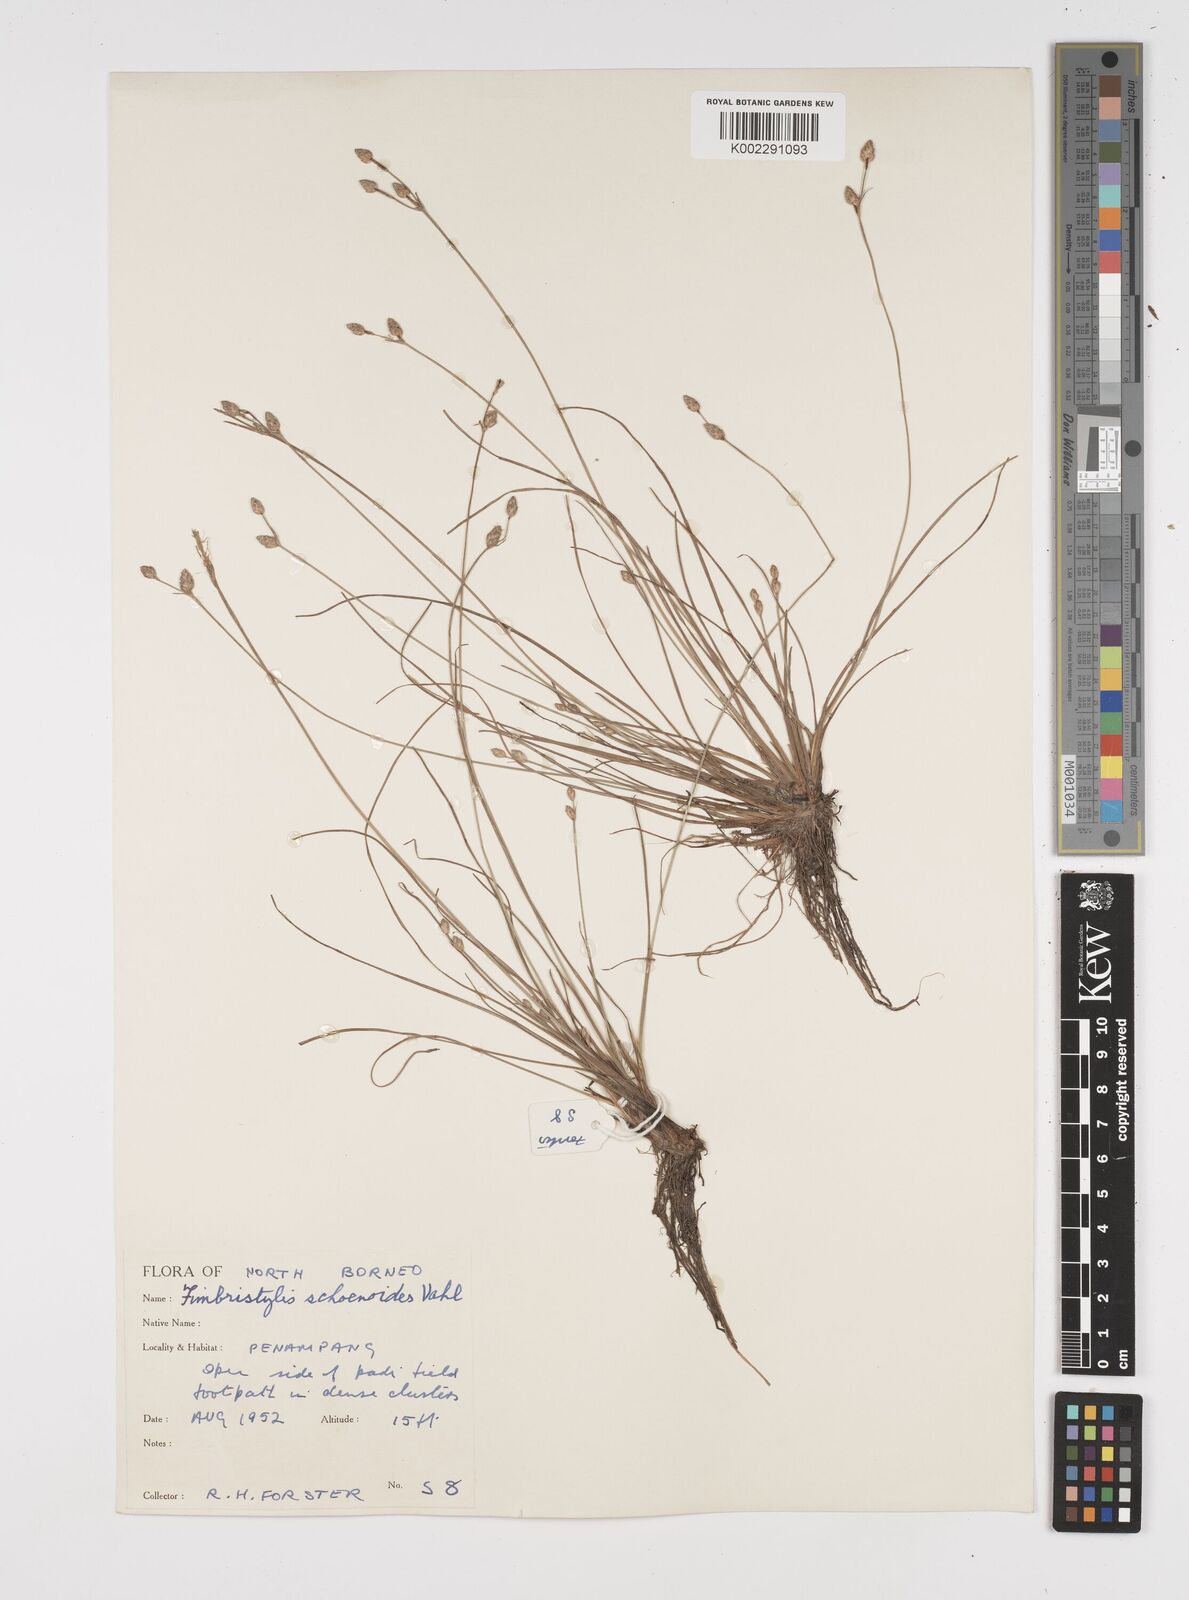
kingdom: Plantae
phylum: Tracheophyta
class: Liliopsida
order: Poales
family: Cyperaceae
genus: Fimbristylis
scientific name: Fimbristylis schoenoides
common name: Ditch fimbry
